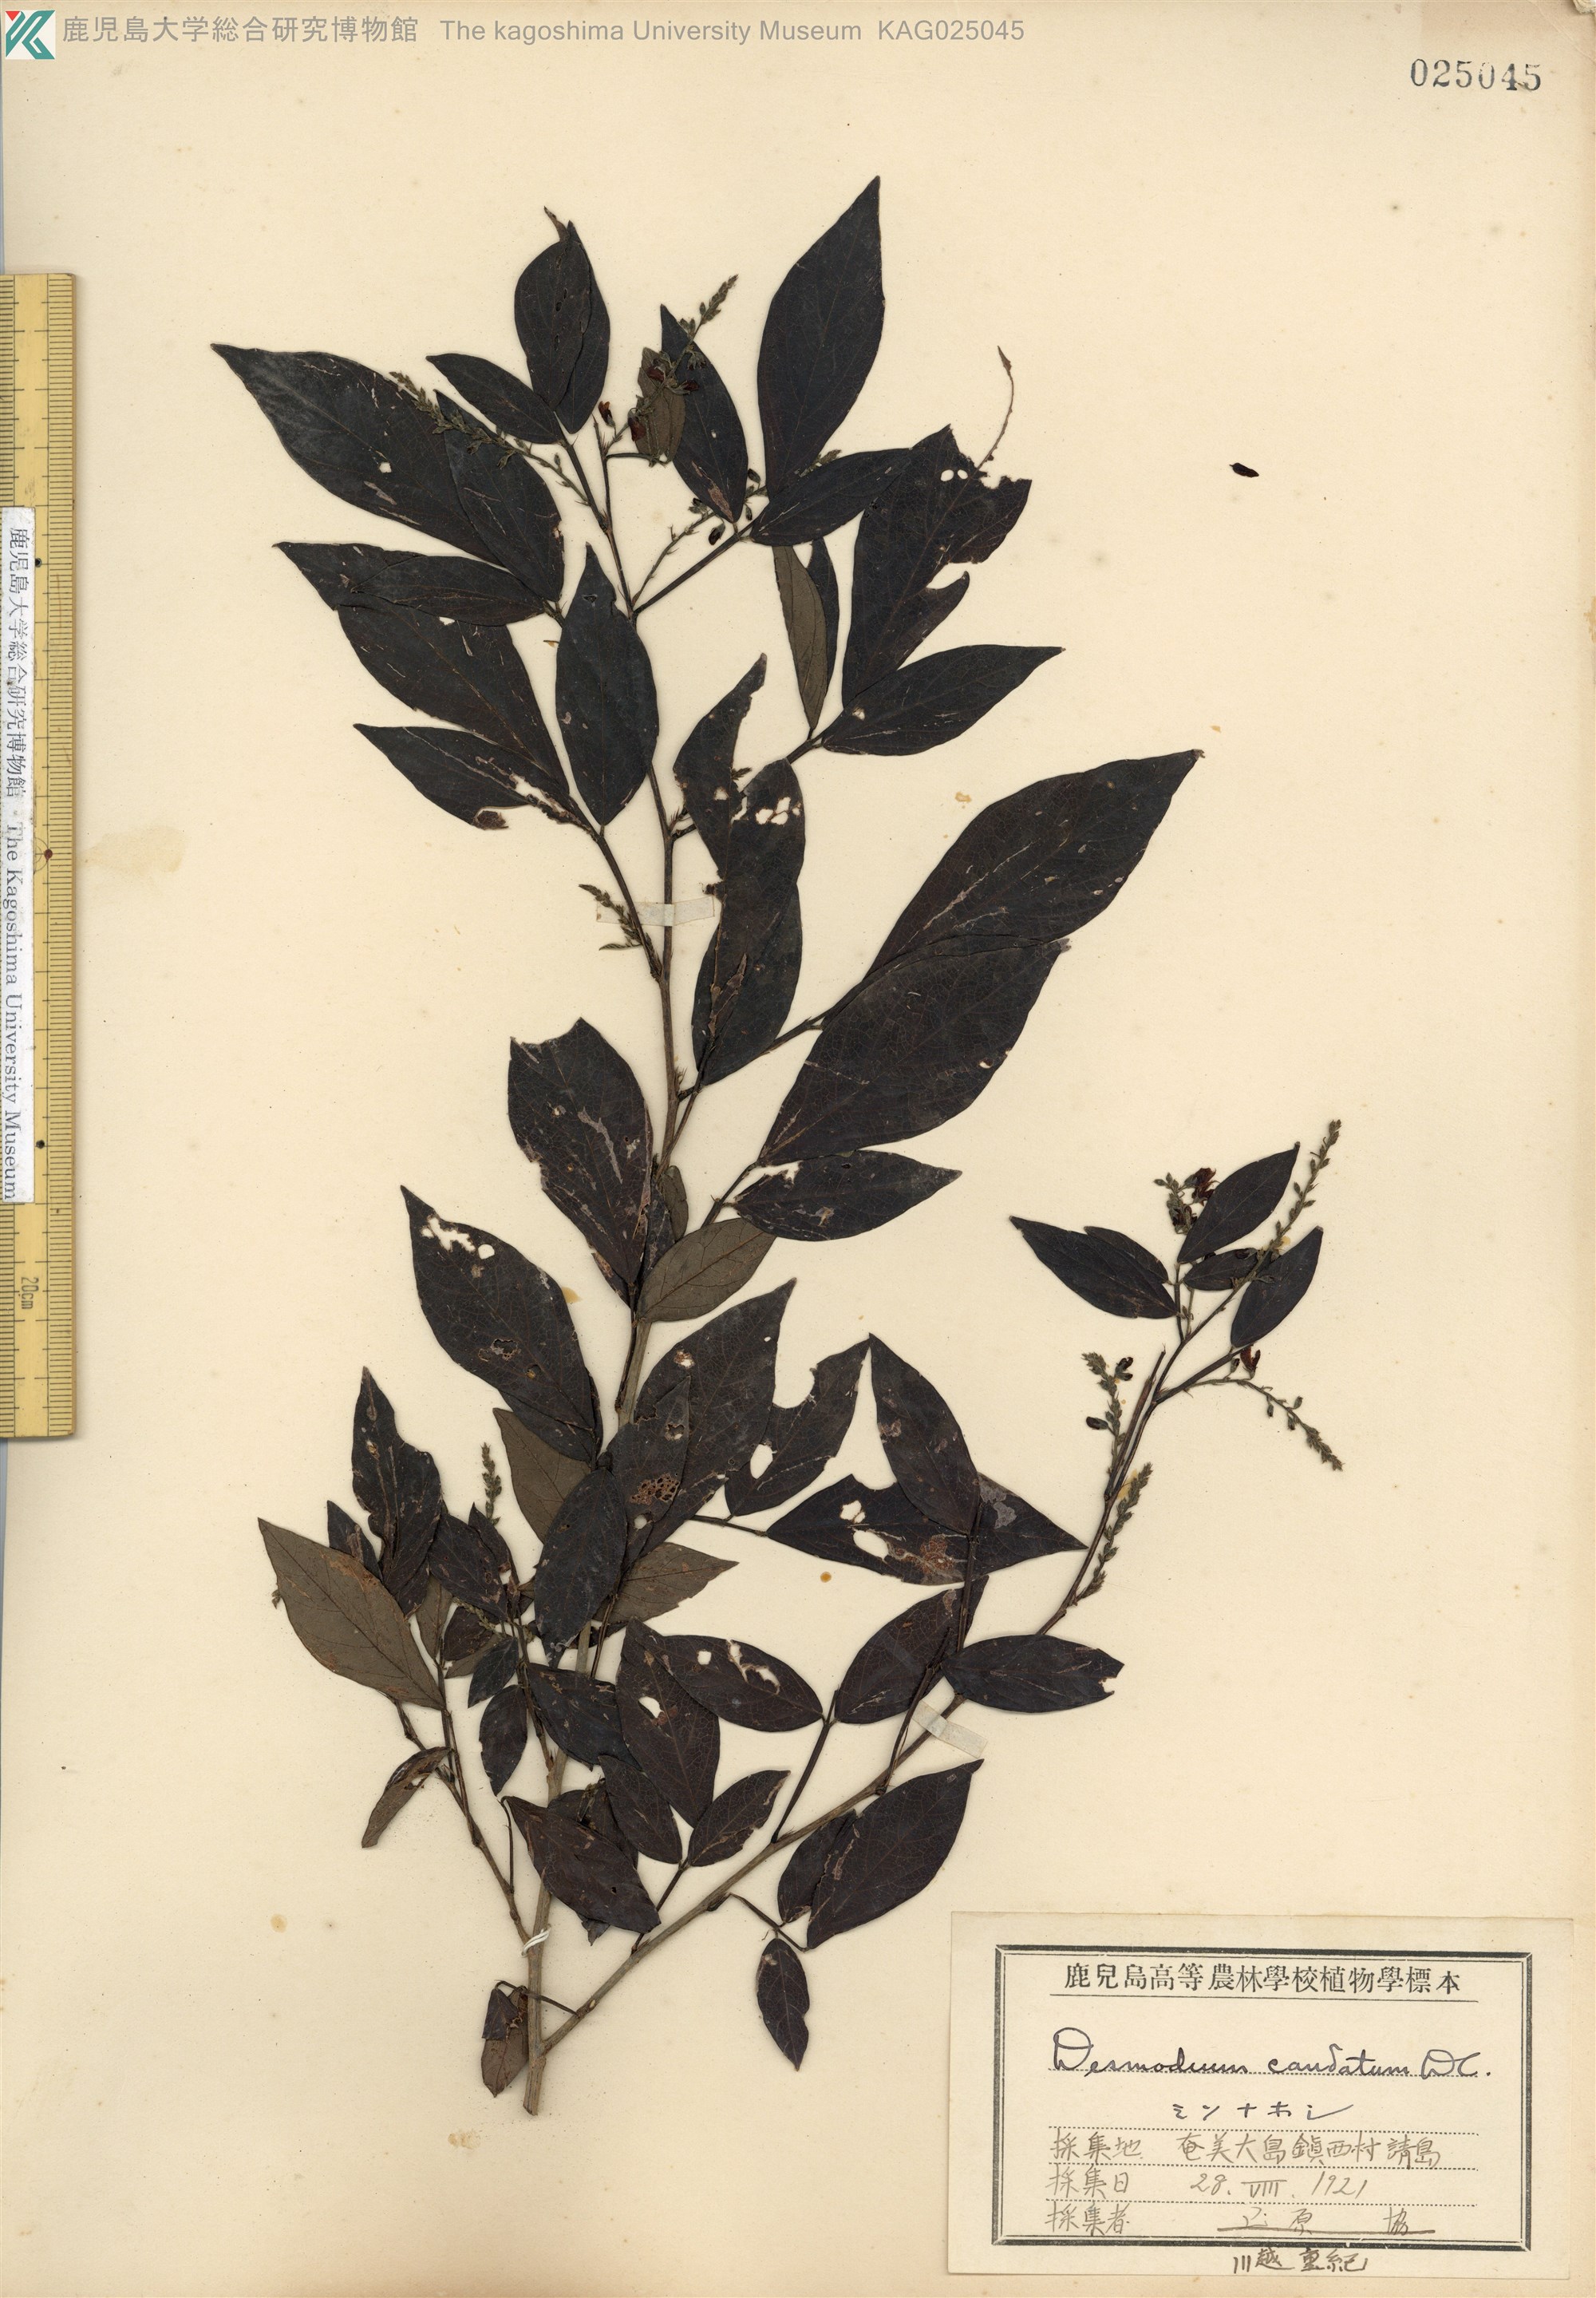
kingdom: Plantae
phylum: Tracheophyta
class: Magnoliopsida
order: Fabales
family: Fabaceae
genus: Ohwia
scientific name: Ohwia caudata
